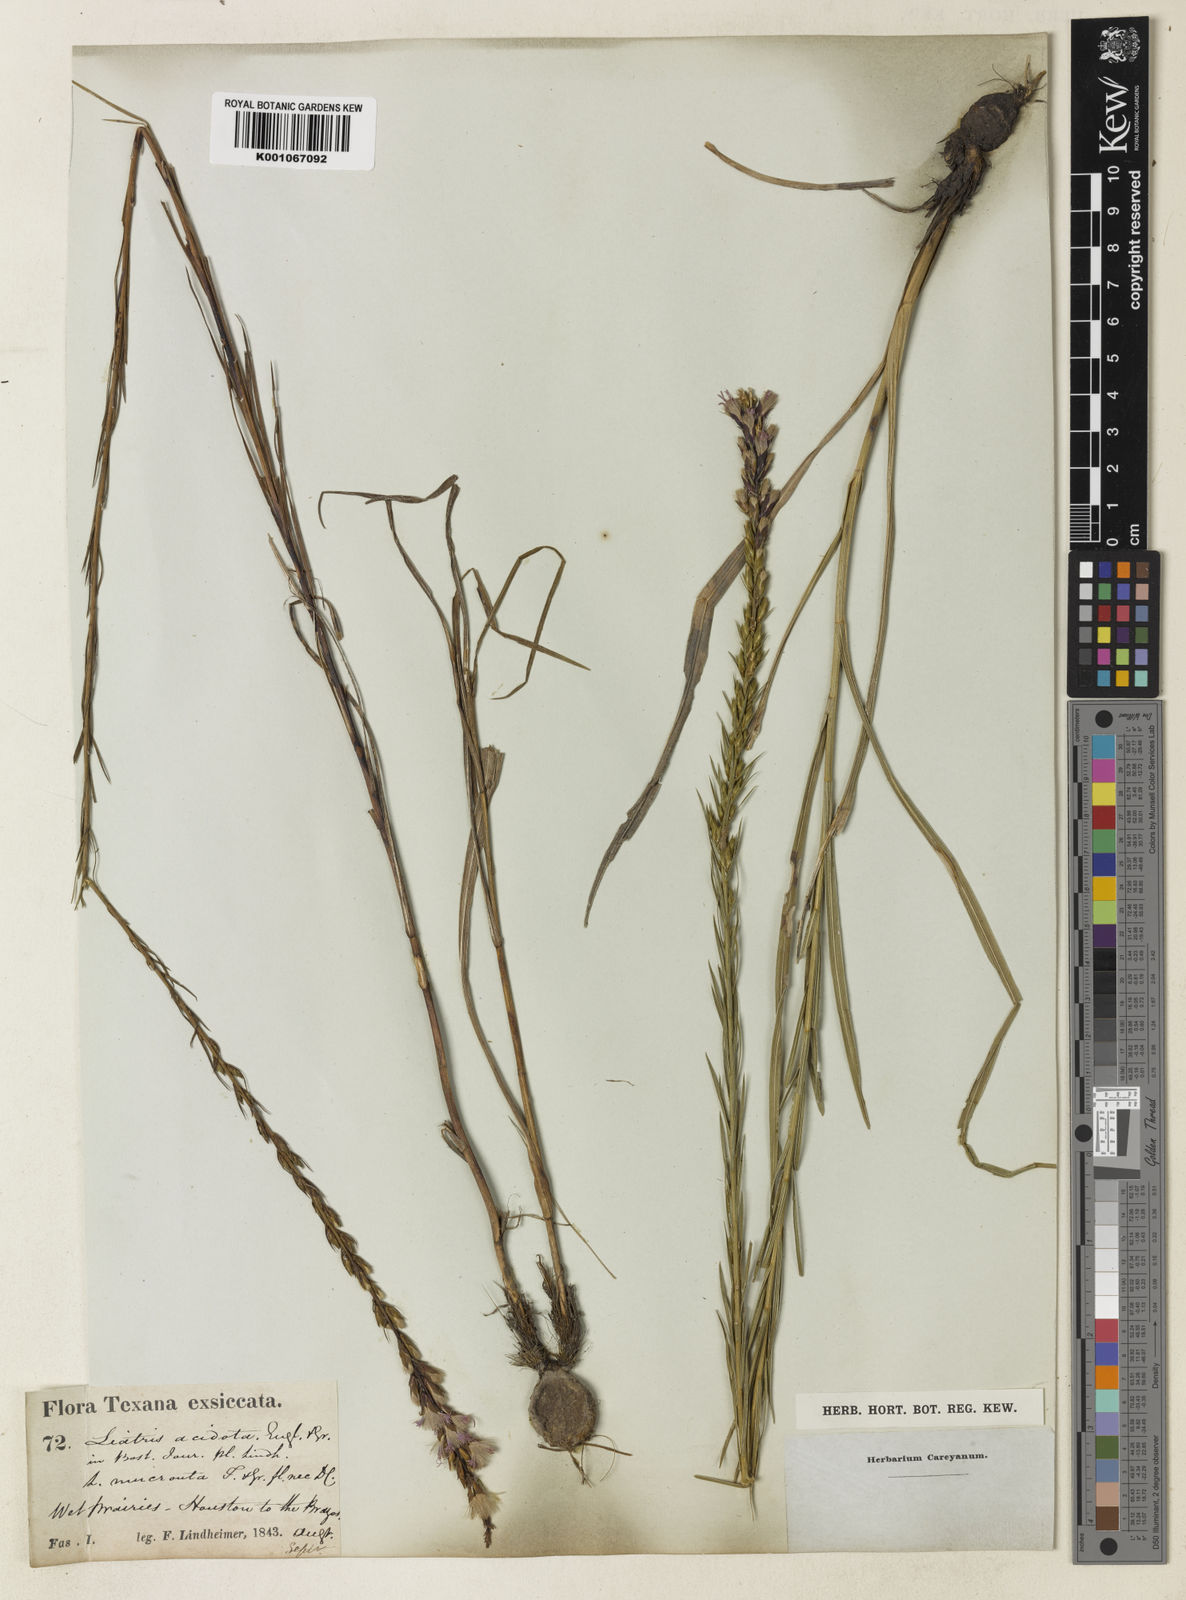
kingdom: Plantae
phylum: Tracheophyta
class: Magnoliopsida
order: Asterales
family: Asteraceae
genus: Liatris
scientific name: Liatris acidota
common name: Gulf coast gayfeather
